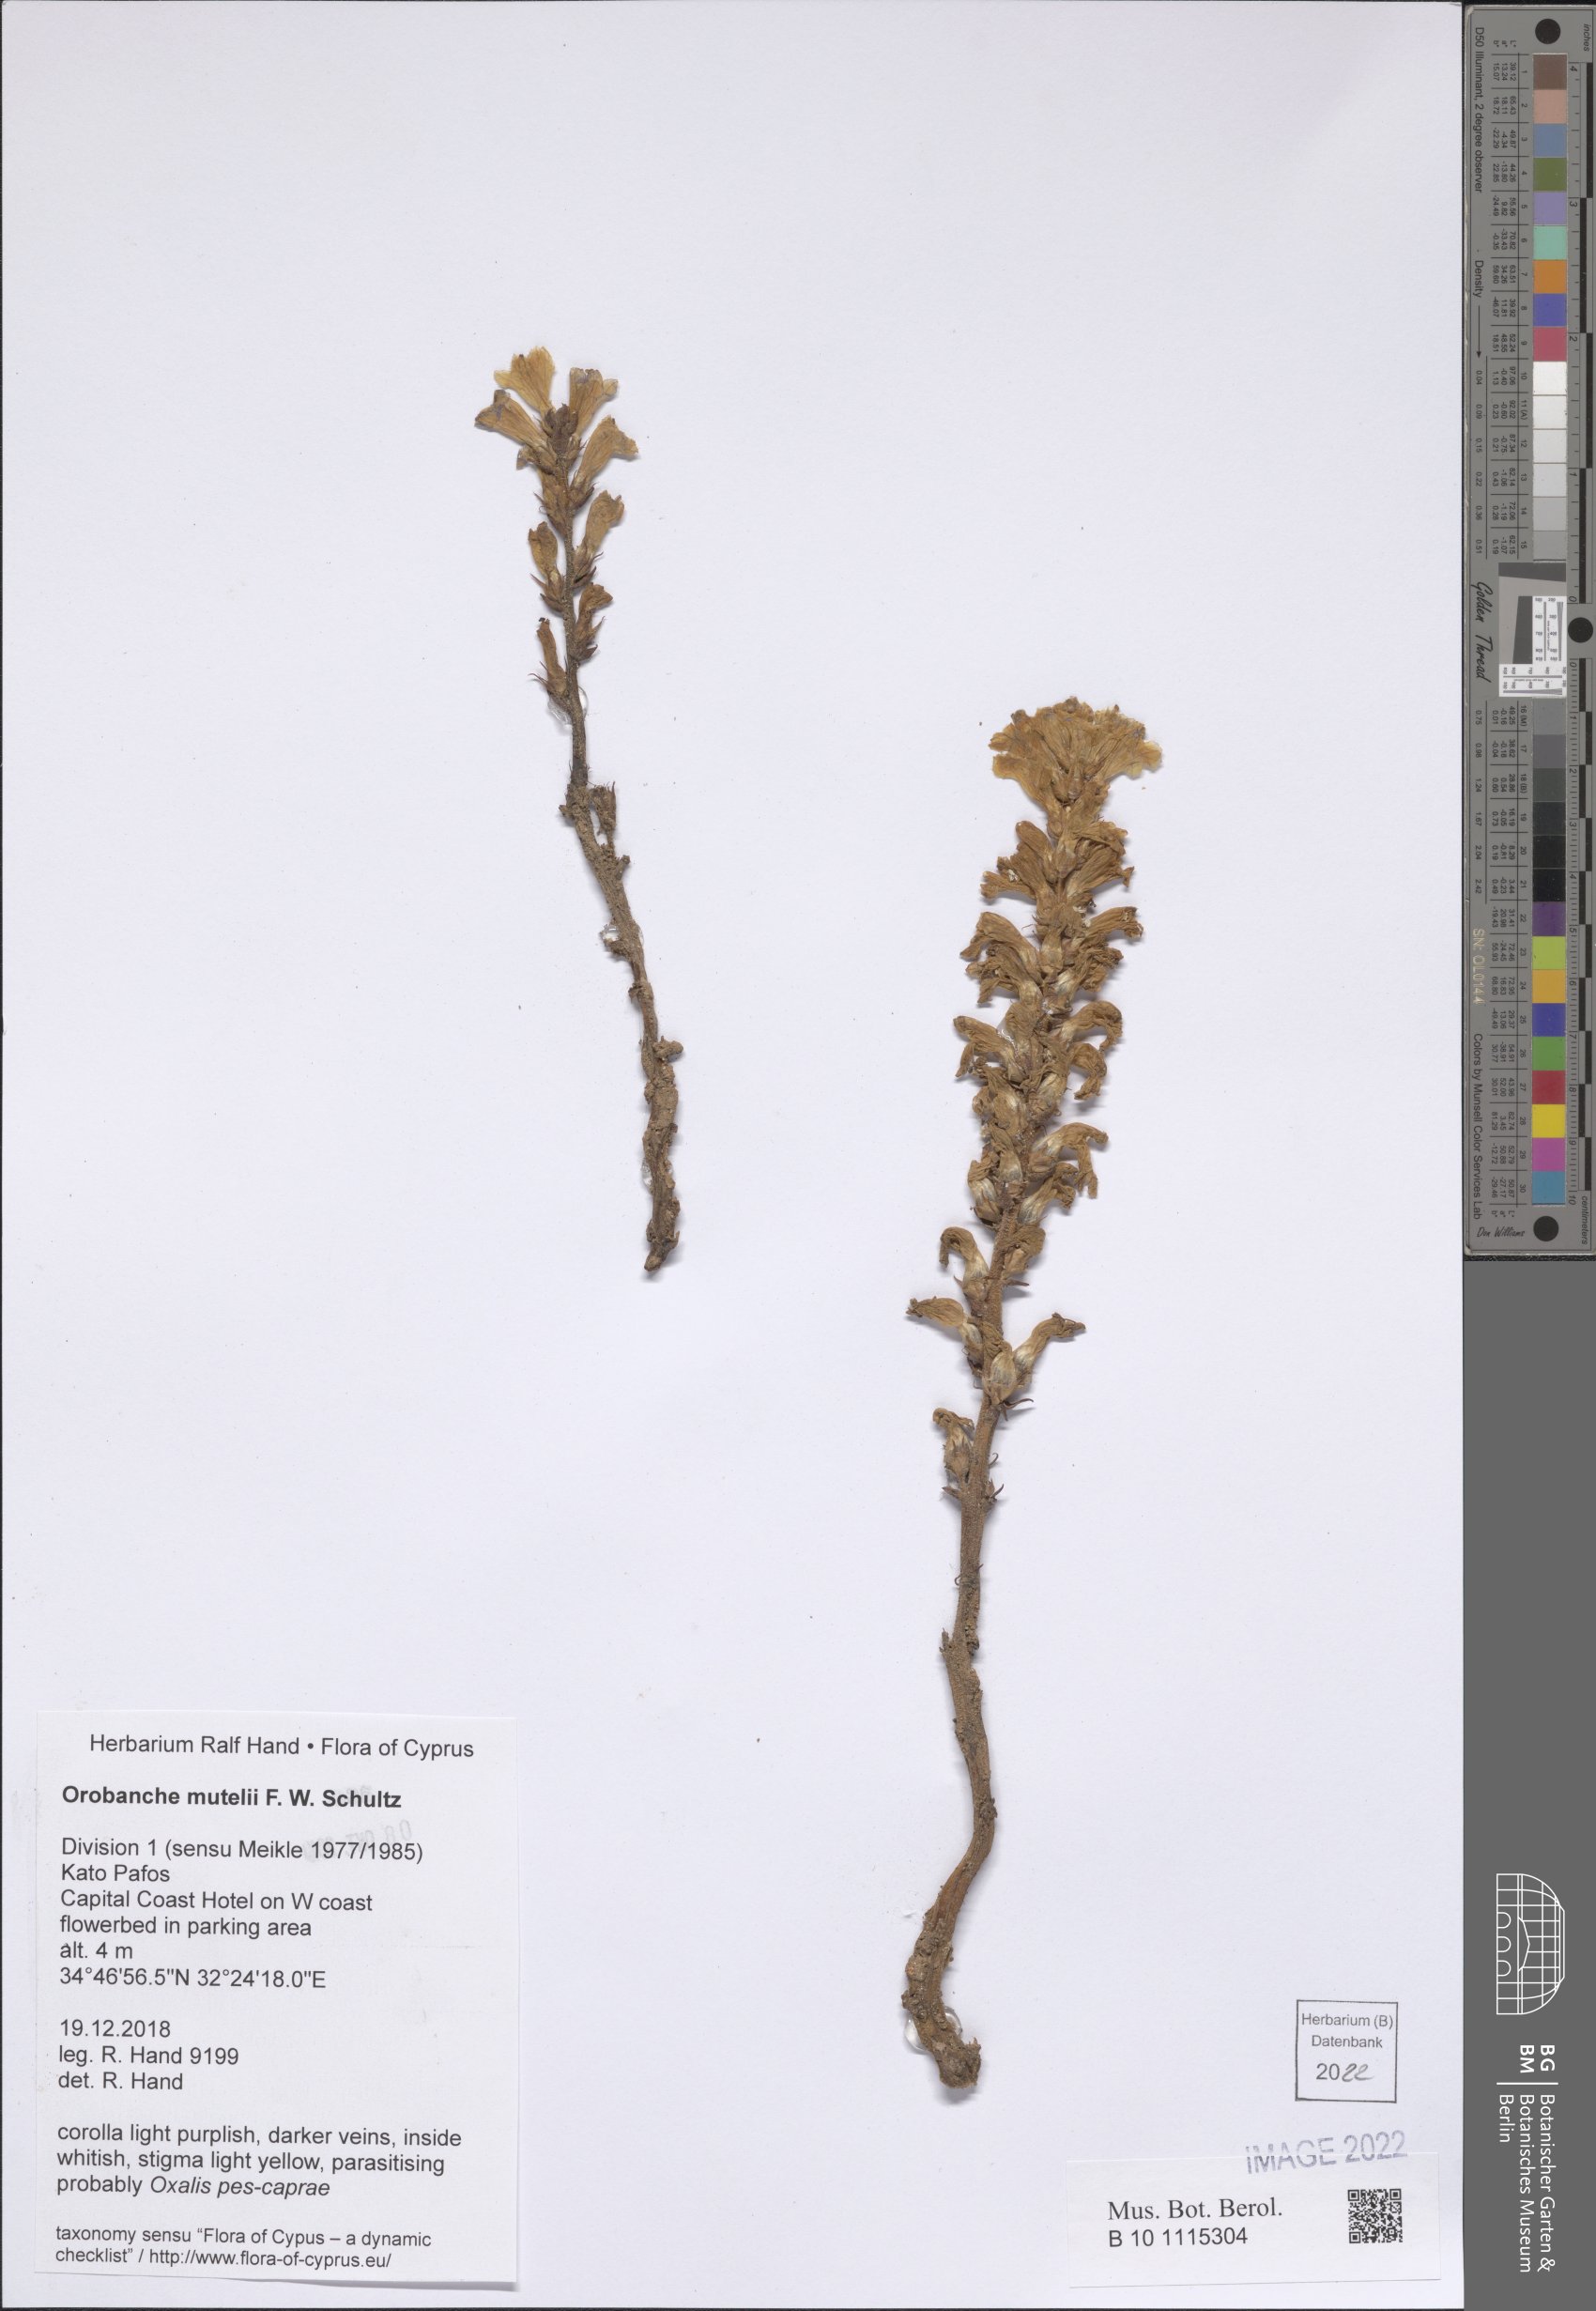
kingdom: Plantae
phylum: Tracheophyta
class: Magnoliopsida
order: Lamiales
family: Orobanchaceae
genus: Phelipanche
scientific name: Phelipanche mutelii
